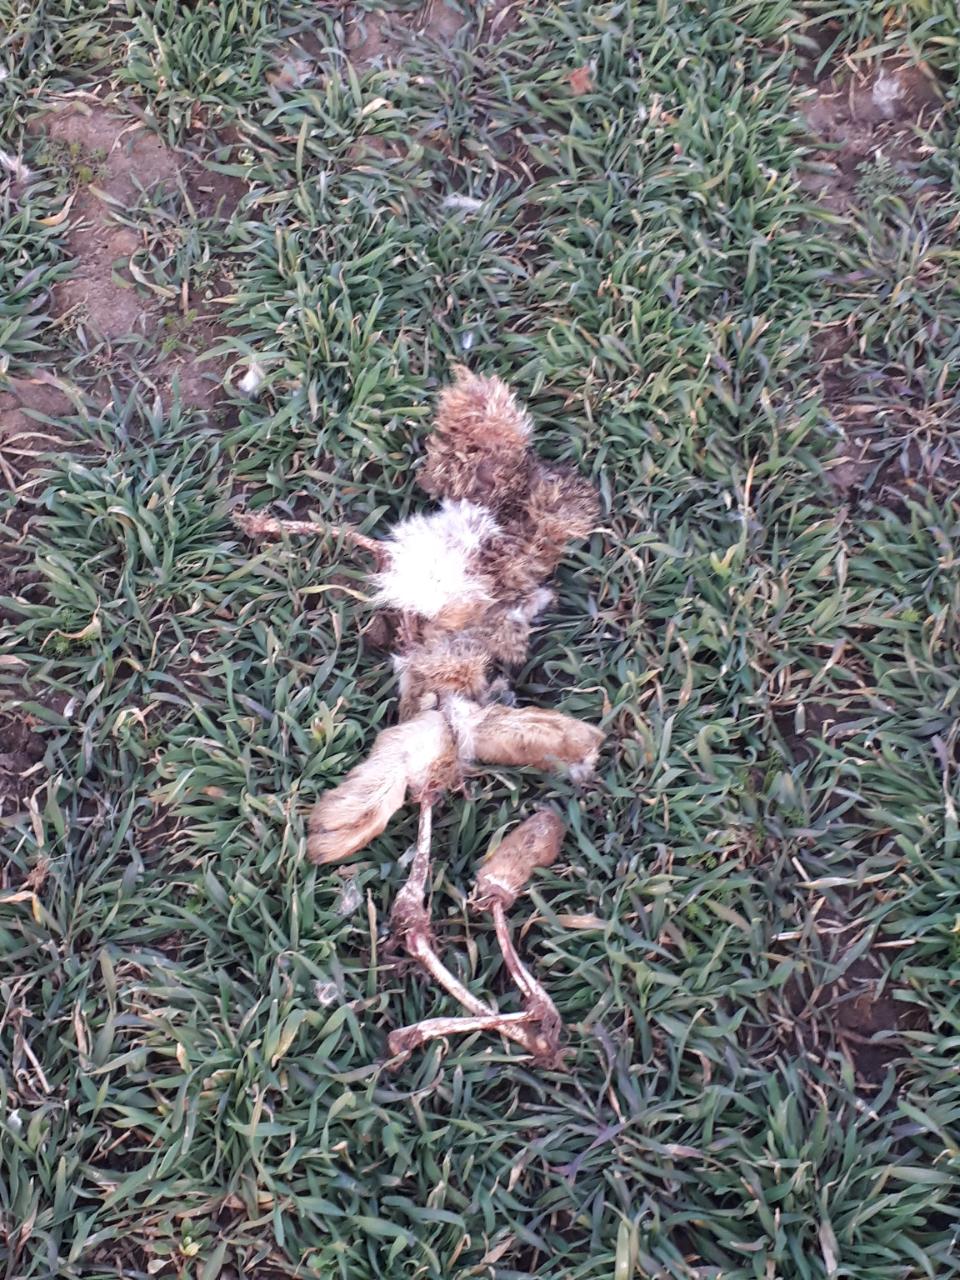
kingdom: Animalia
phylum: Chordata
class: Mammalia
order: Lagomorpha
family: Leporidae
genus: Lepus
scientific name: Lepus europaeus
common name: European hare
